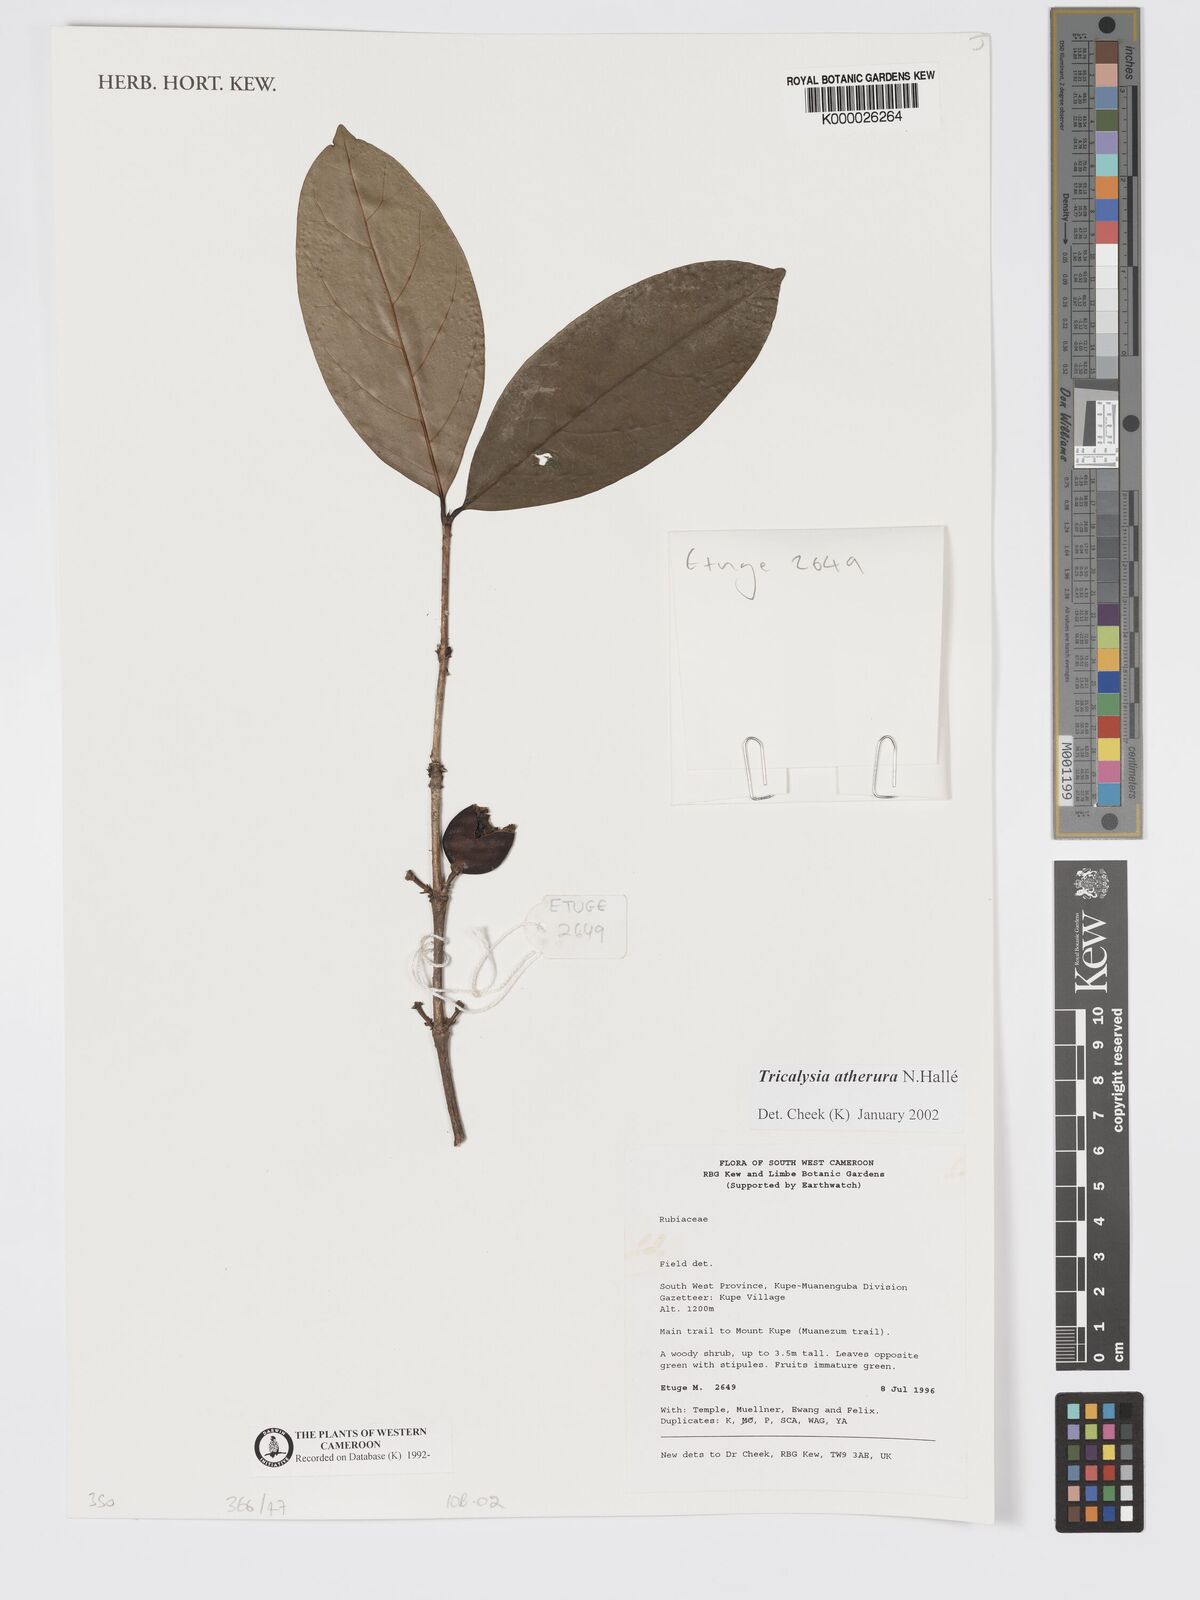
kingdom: Plantae
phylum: Tracheophyta
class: Magnoliopsida
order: Gentianales
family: Rubiaceae
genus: Tricalysia
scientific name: Tricalysia
